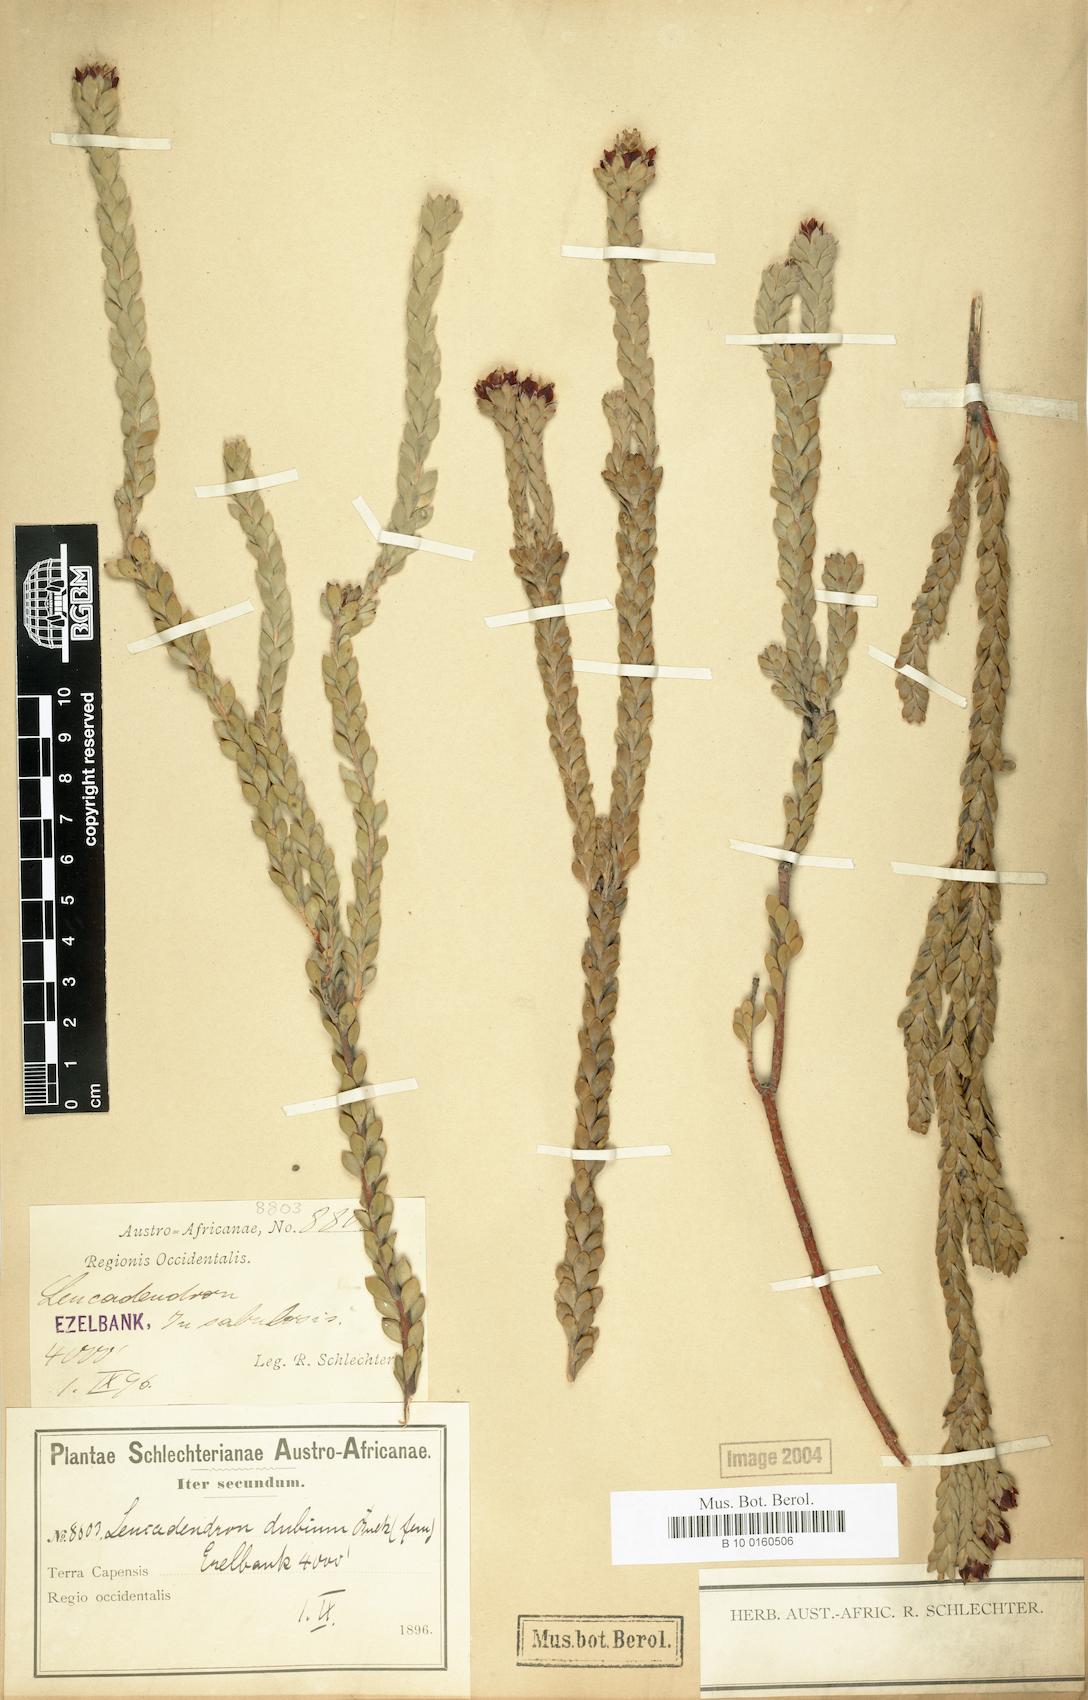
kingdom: Plantae
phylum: Tracheophyta
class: Magnoliopsida
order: Proteales
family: Proteaceae
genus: Leucadendron
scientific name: Leucadendron dubium
